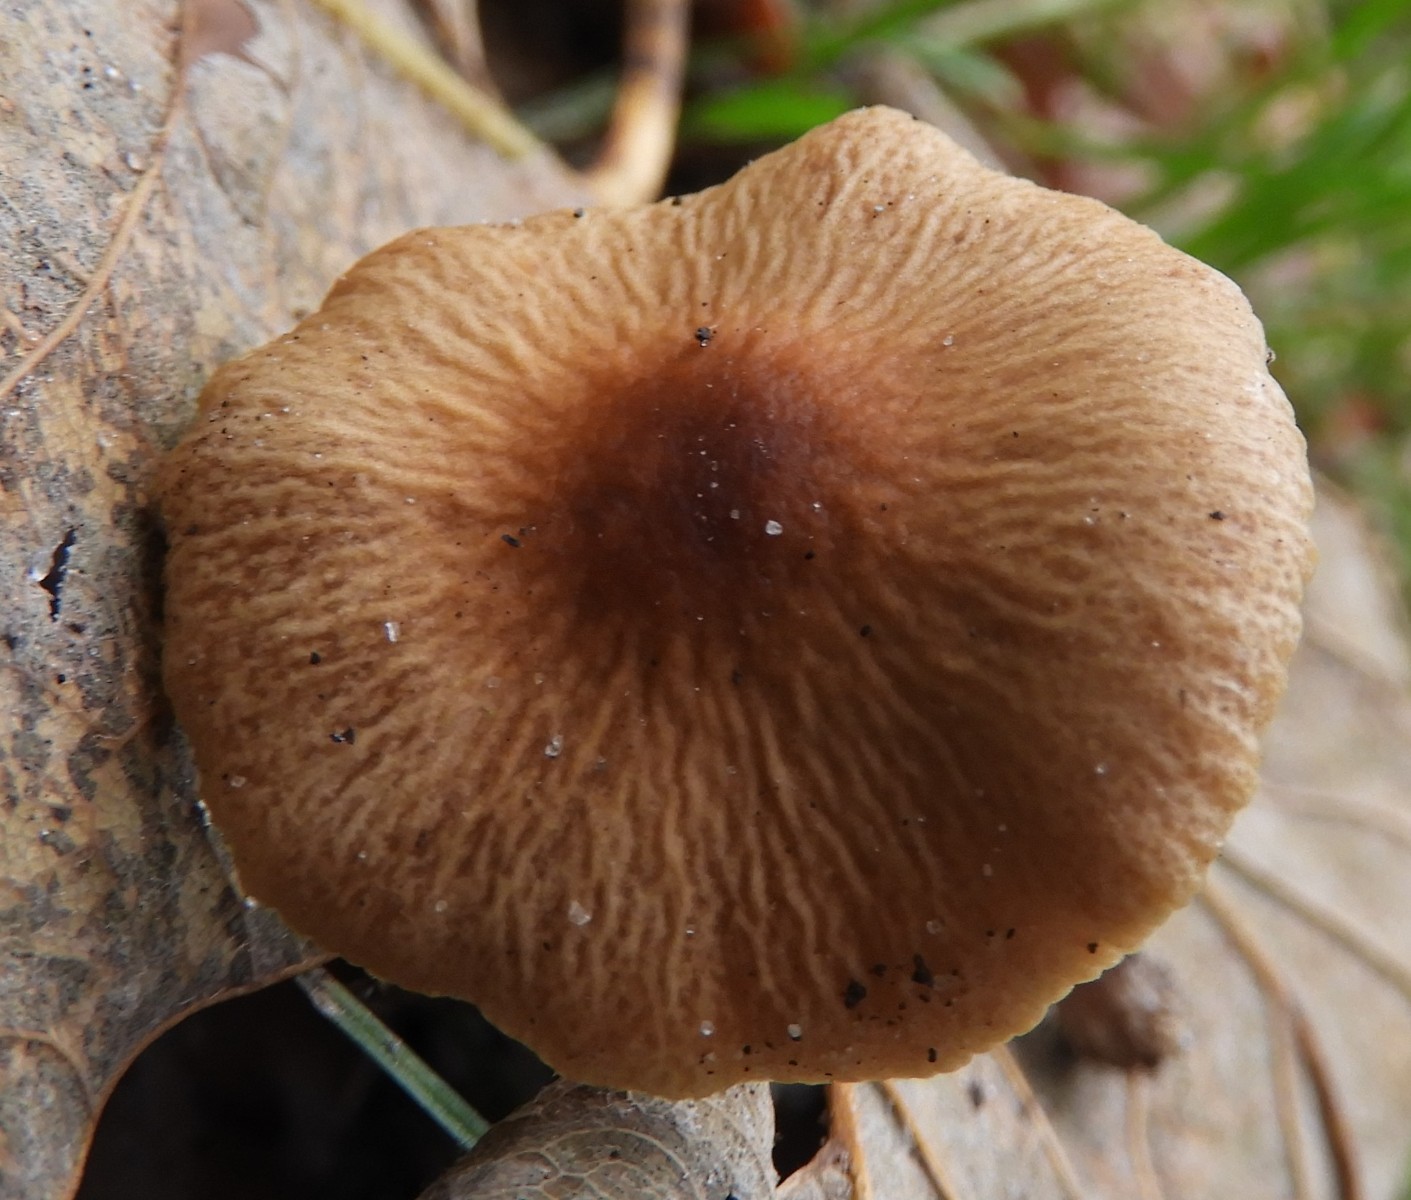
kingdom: Fungi
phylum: Basidiomycota
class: Agaricomycetes
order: Agaricales
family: Bolbitiaceae
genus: Pholiotina
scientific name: Pholiotina
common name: dansehat
